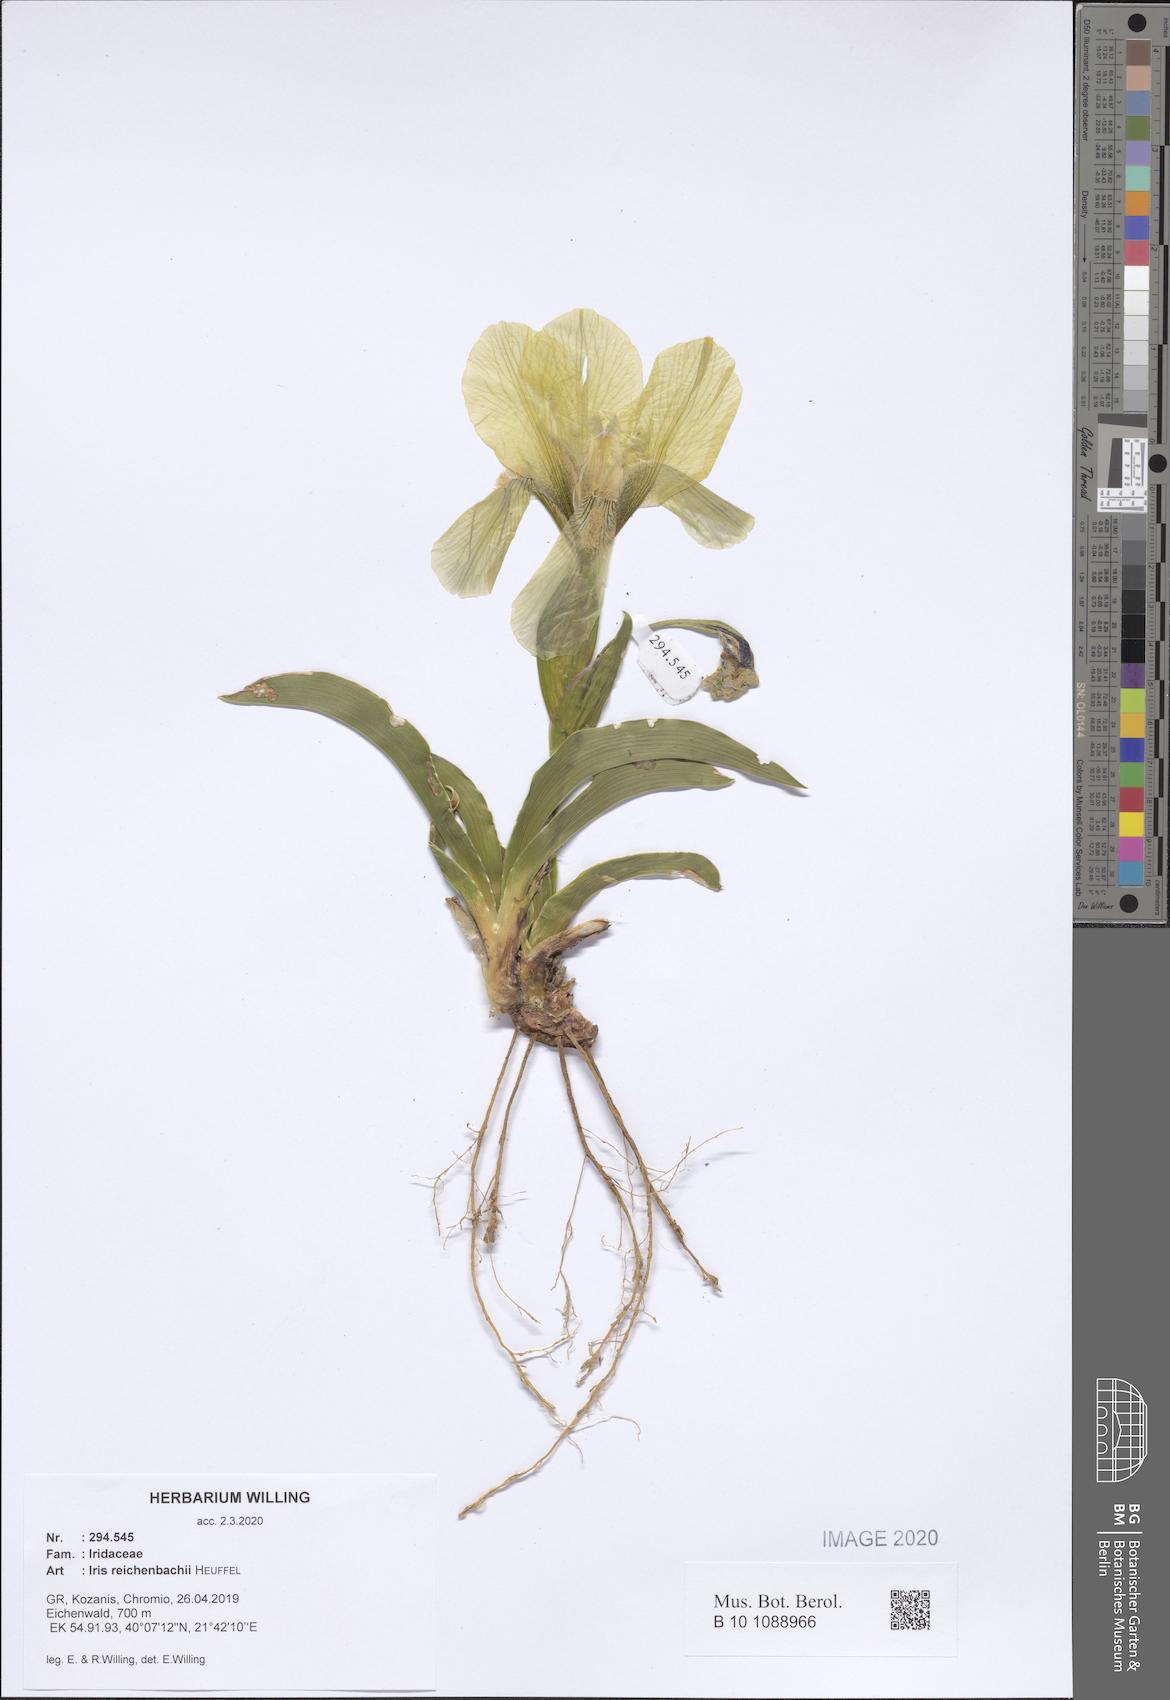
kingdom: Plantae
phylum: Tracheophyta
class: Liliopsida
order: Asparagales
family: Iridaceae
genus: Iris
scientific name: Iris reichenbachii
